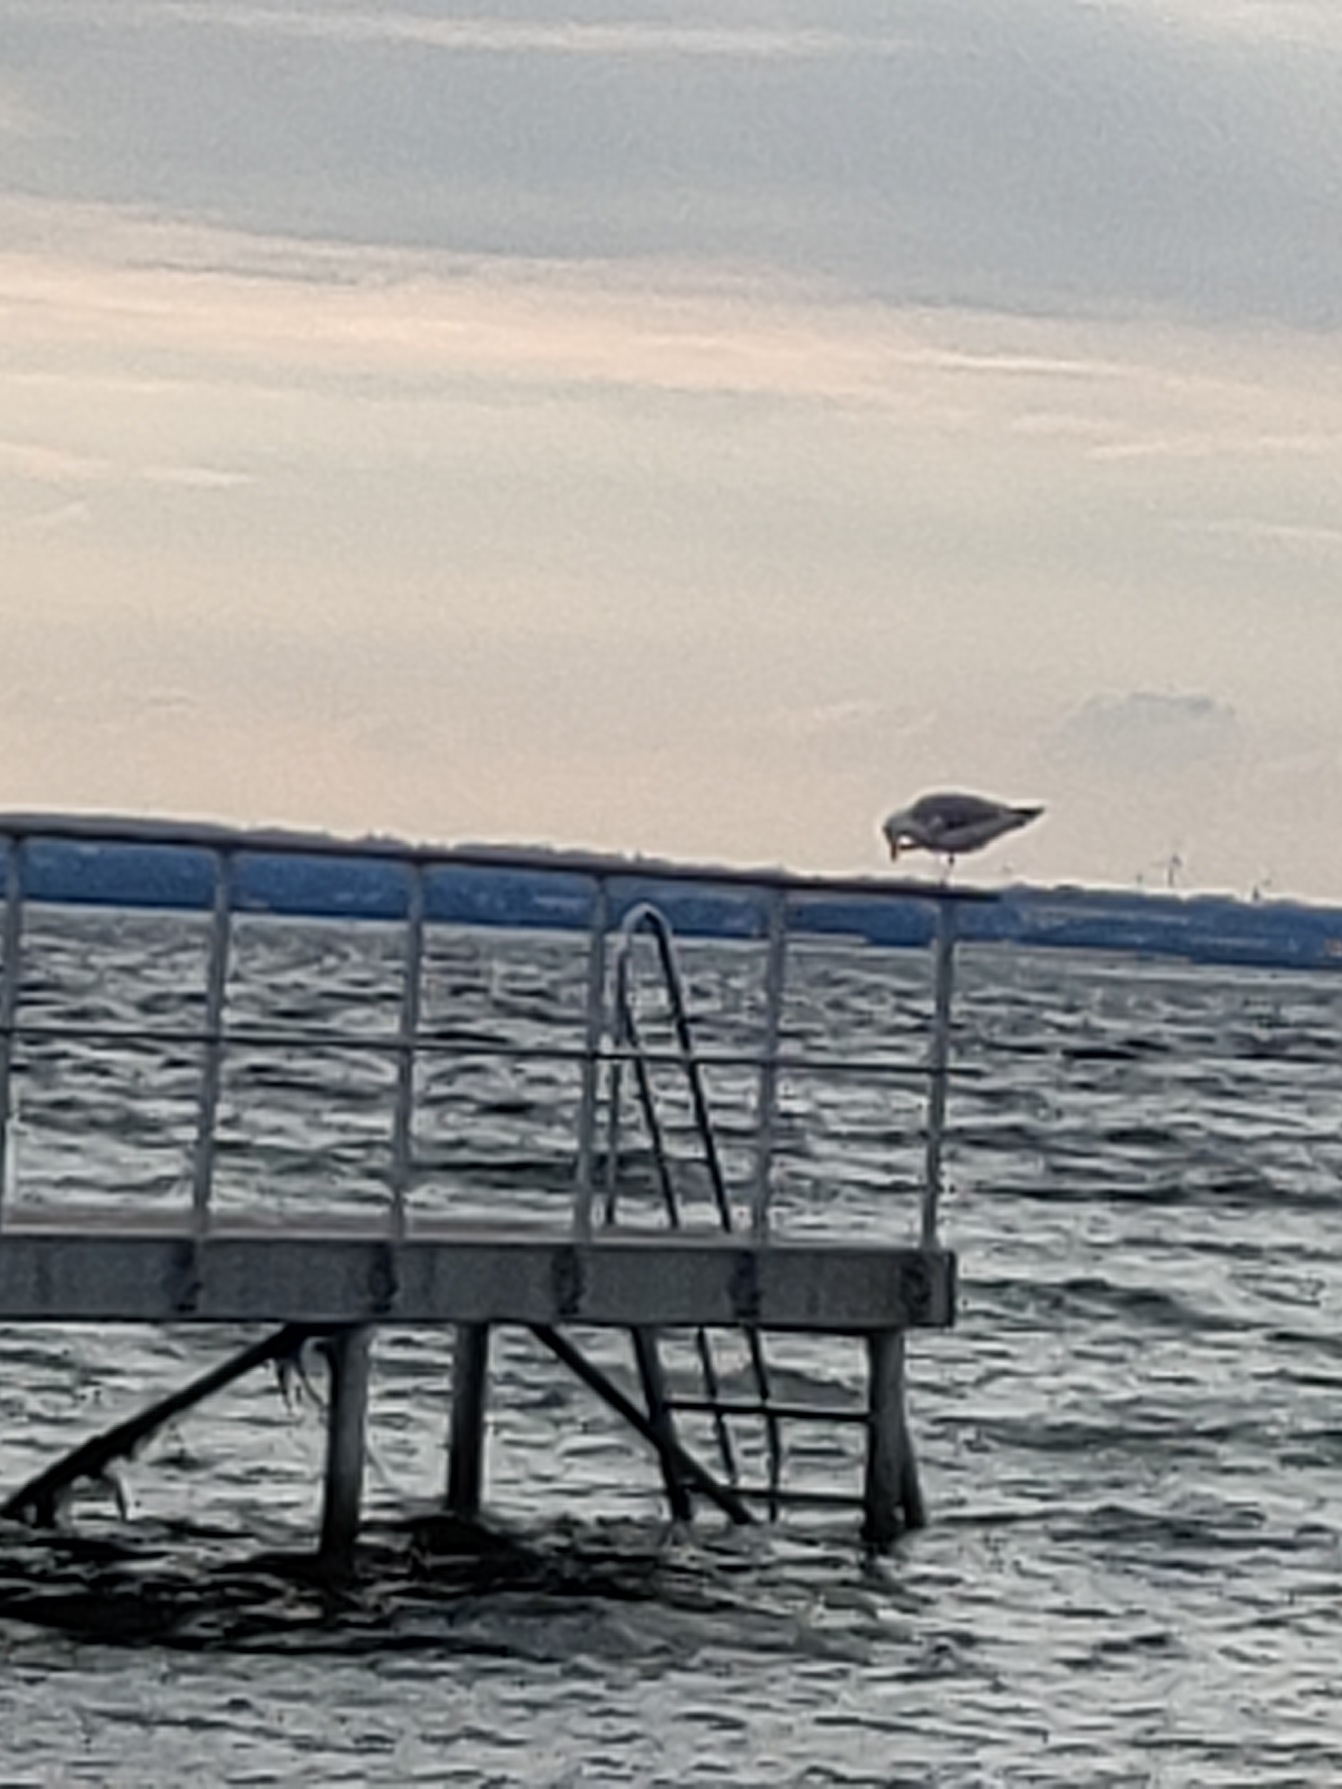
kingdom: Animalia
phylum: Chordata
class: Aves
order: Charadriiformes
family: Laridae
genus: Larus
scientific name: Larus argentatus
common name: Sølvmåge
